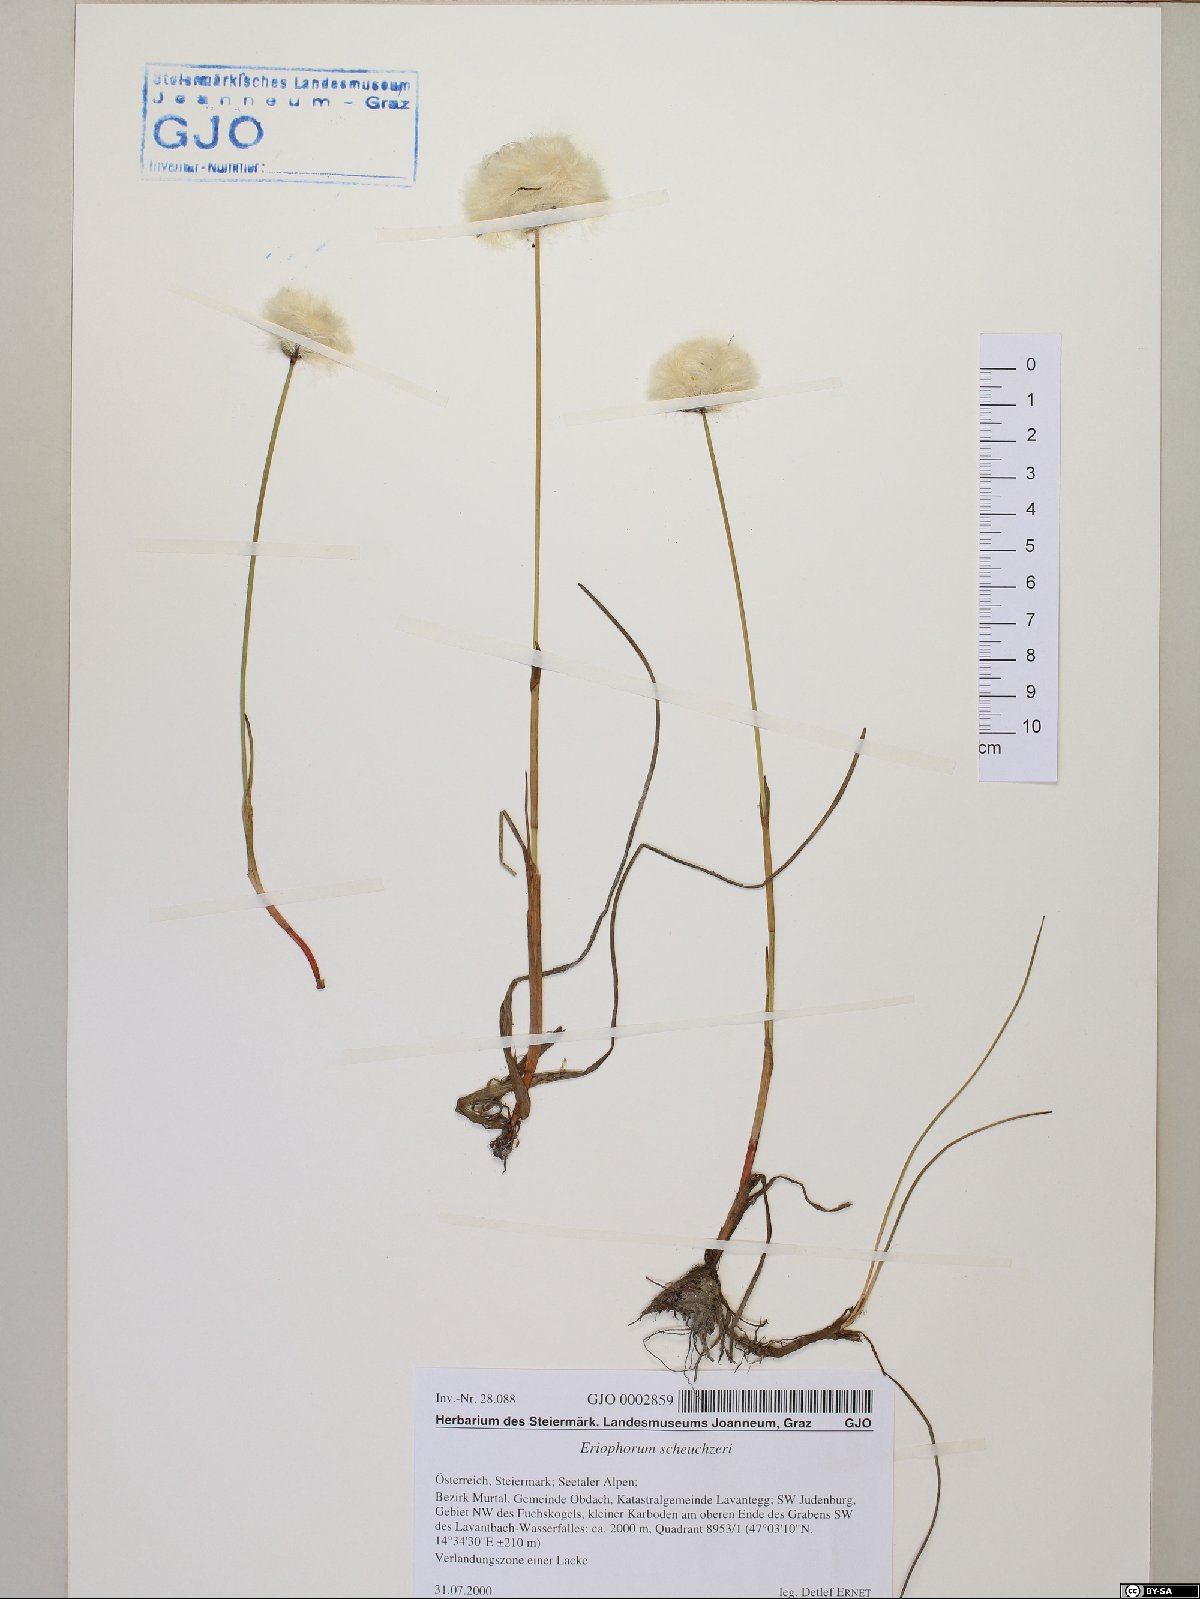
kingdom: Plantae
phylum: Tracheophyta
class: Liliopsida
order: Poales
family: Cyperaceae
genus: Eriophorum
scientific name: Eriophorum scheuchzeri
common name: Scheuchzer's cottongrass
